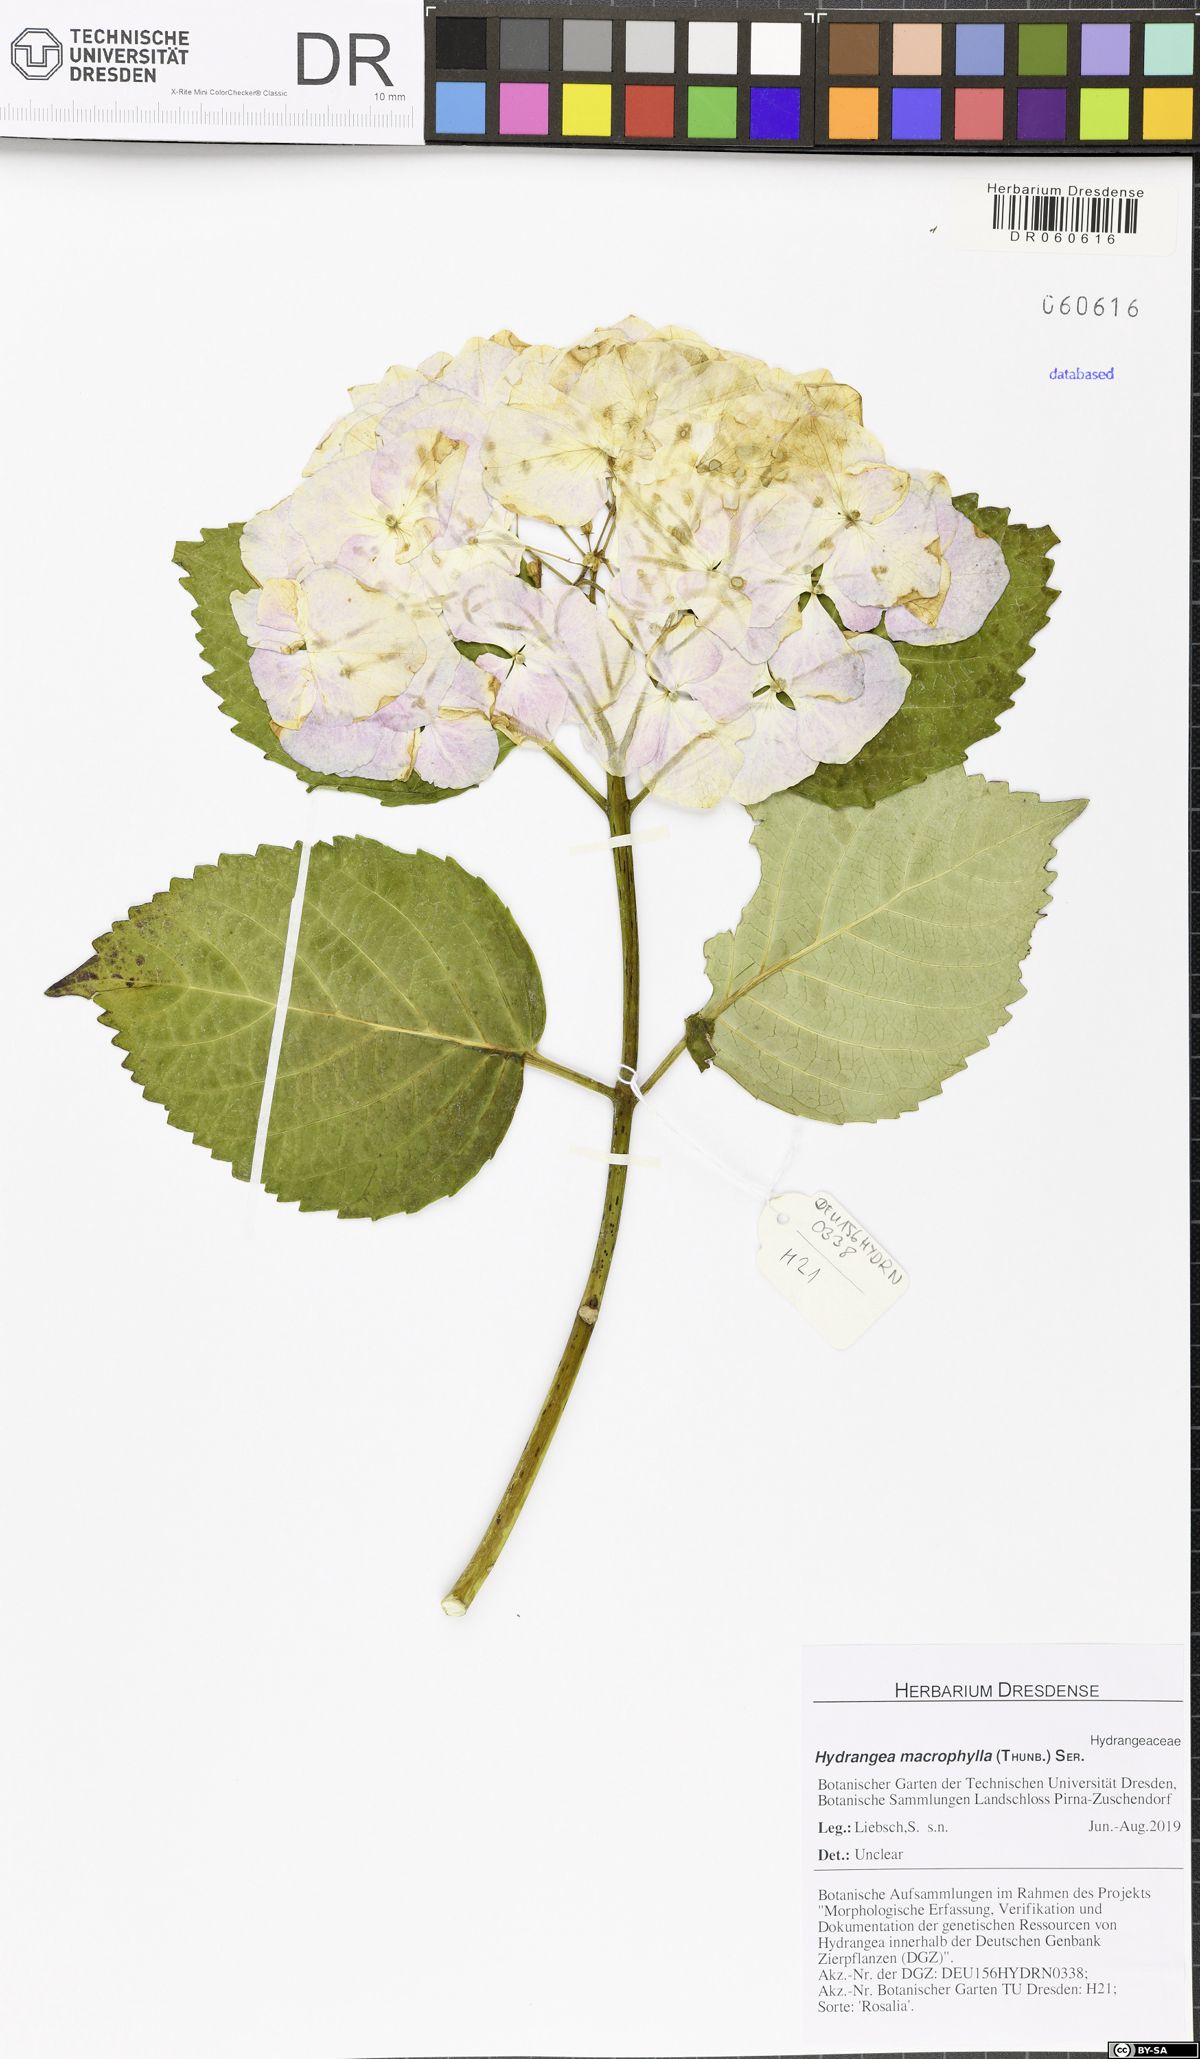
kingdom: Plantae
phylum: Tracheophyta
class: Magnoliopsida
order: Cornales
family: Hydrangeaceae
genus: Hydrangea
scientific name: Hydrangea macrophylla
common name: Hydrangea
